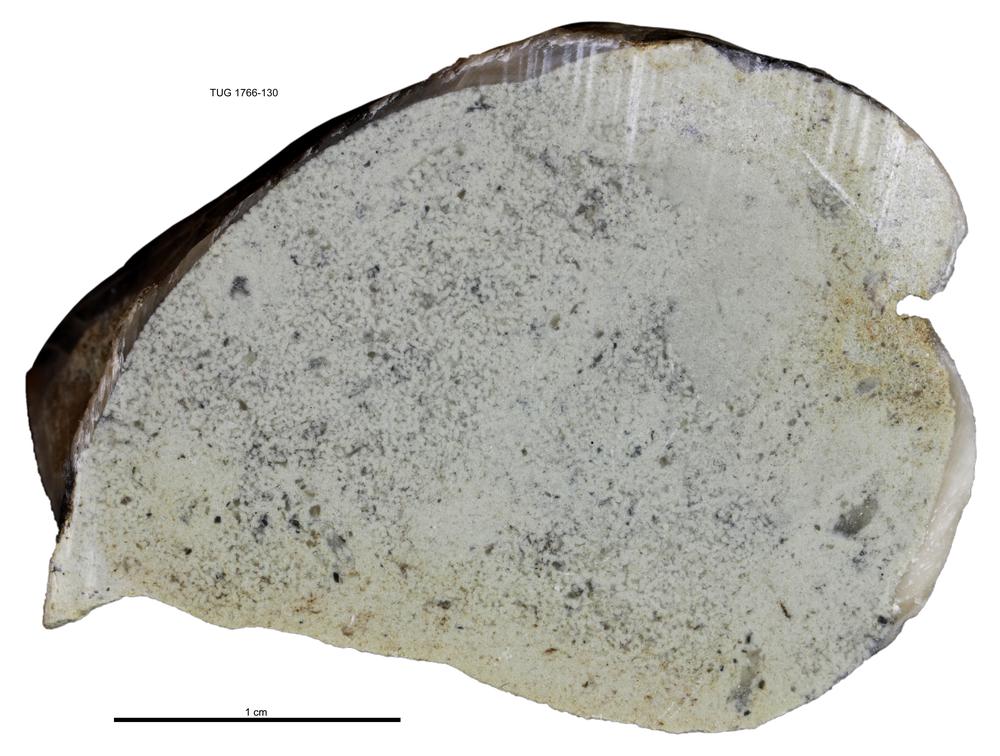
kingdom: Animalia
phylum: Brachiopoda
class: Rhynchonellata
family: Porambonitidae
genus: Porambonites
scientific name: Porambonites
